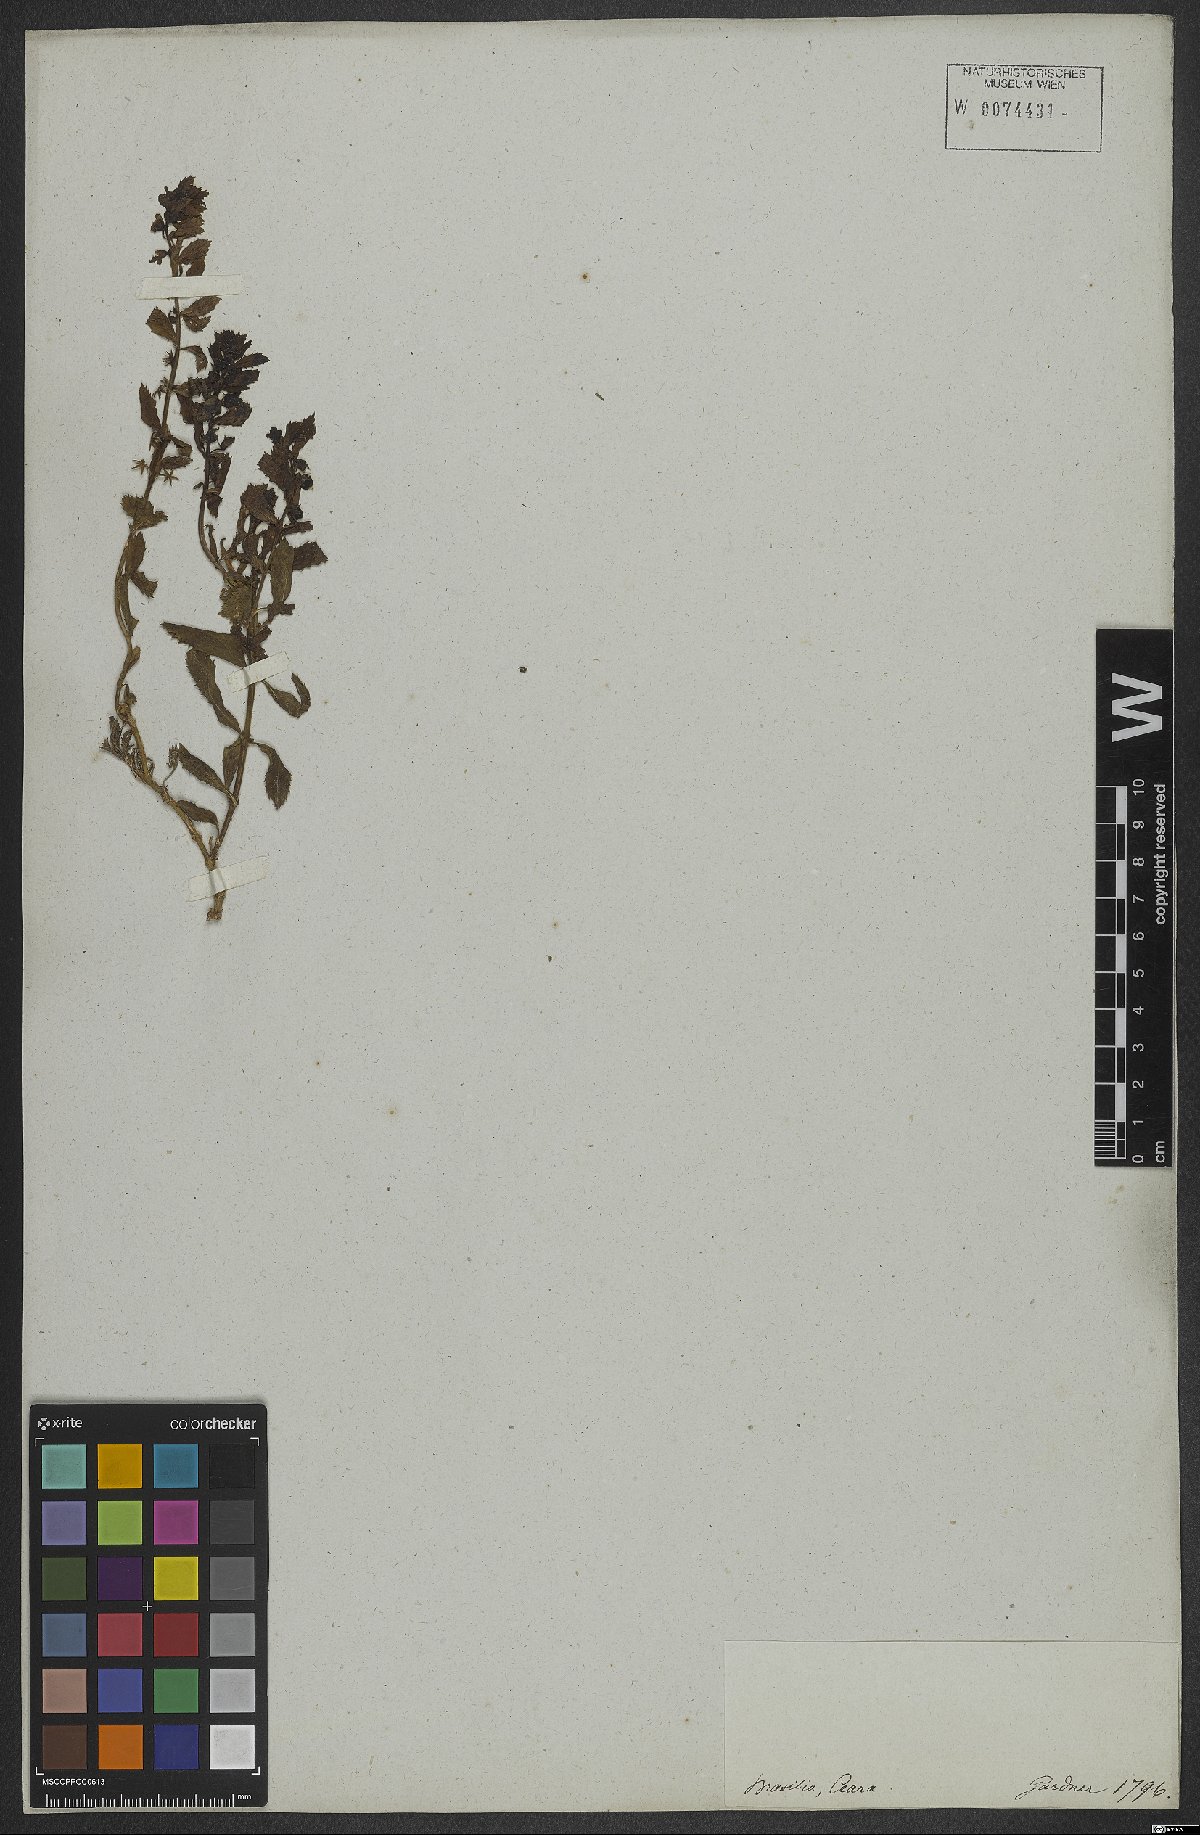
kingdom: Plantae
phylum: Tracheophyta
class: Magnoliopsida
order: Lamiales
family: Plantaginaceae
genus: Stemodia
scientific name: Stemodia
